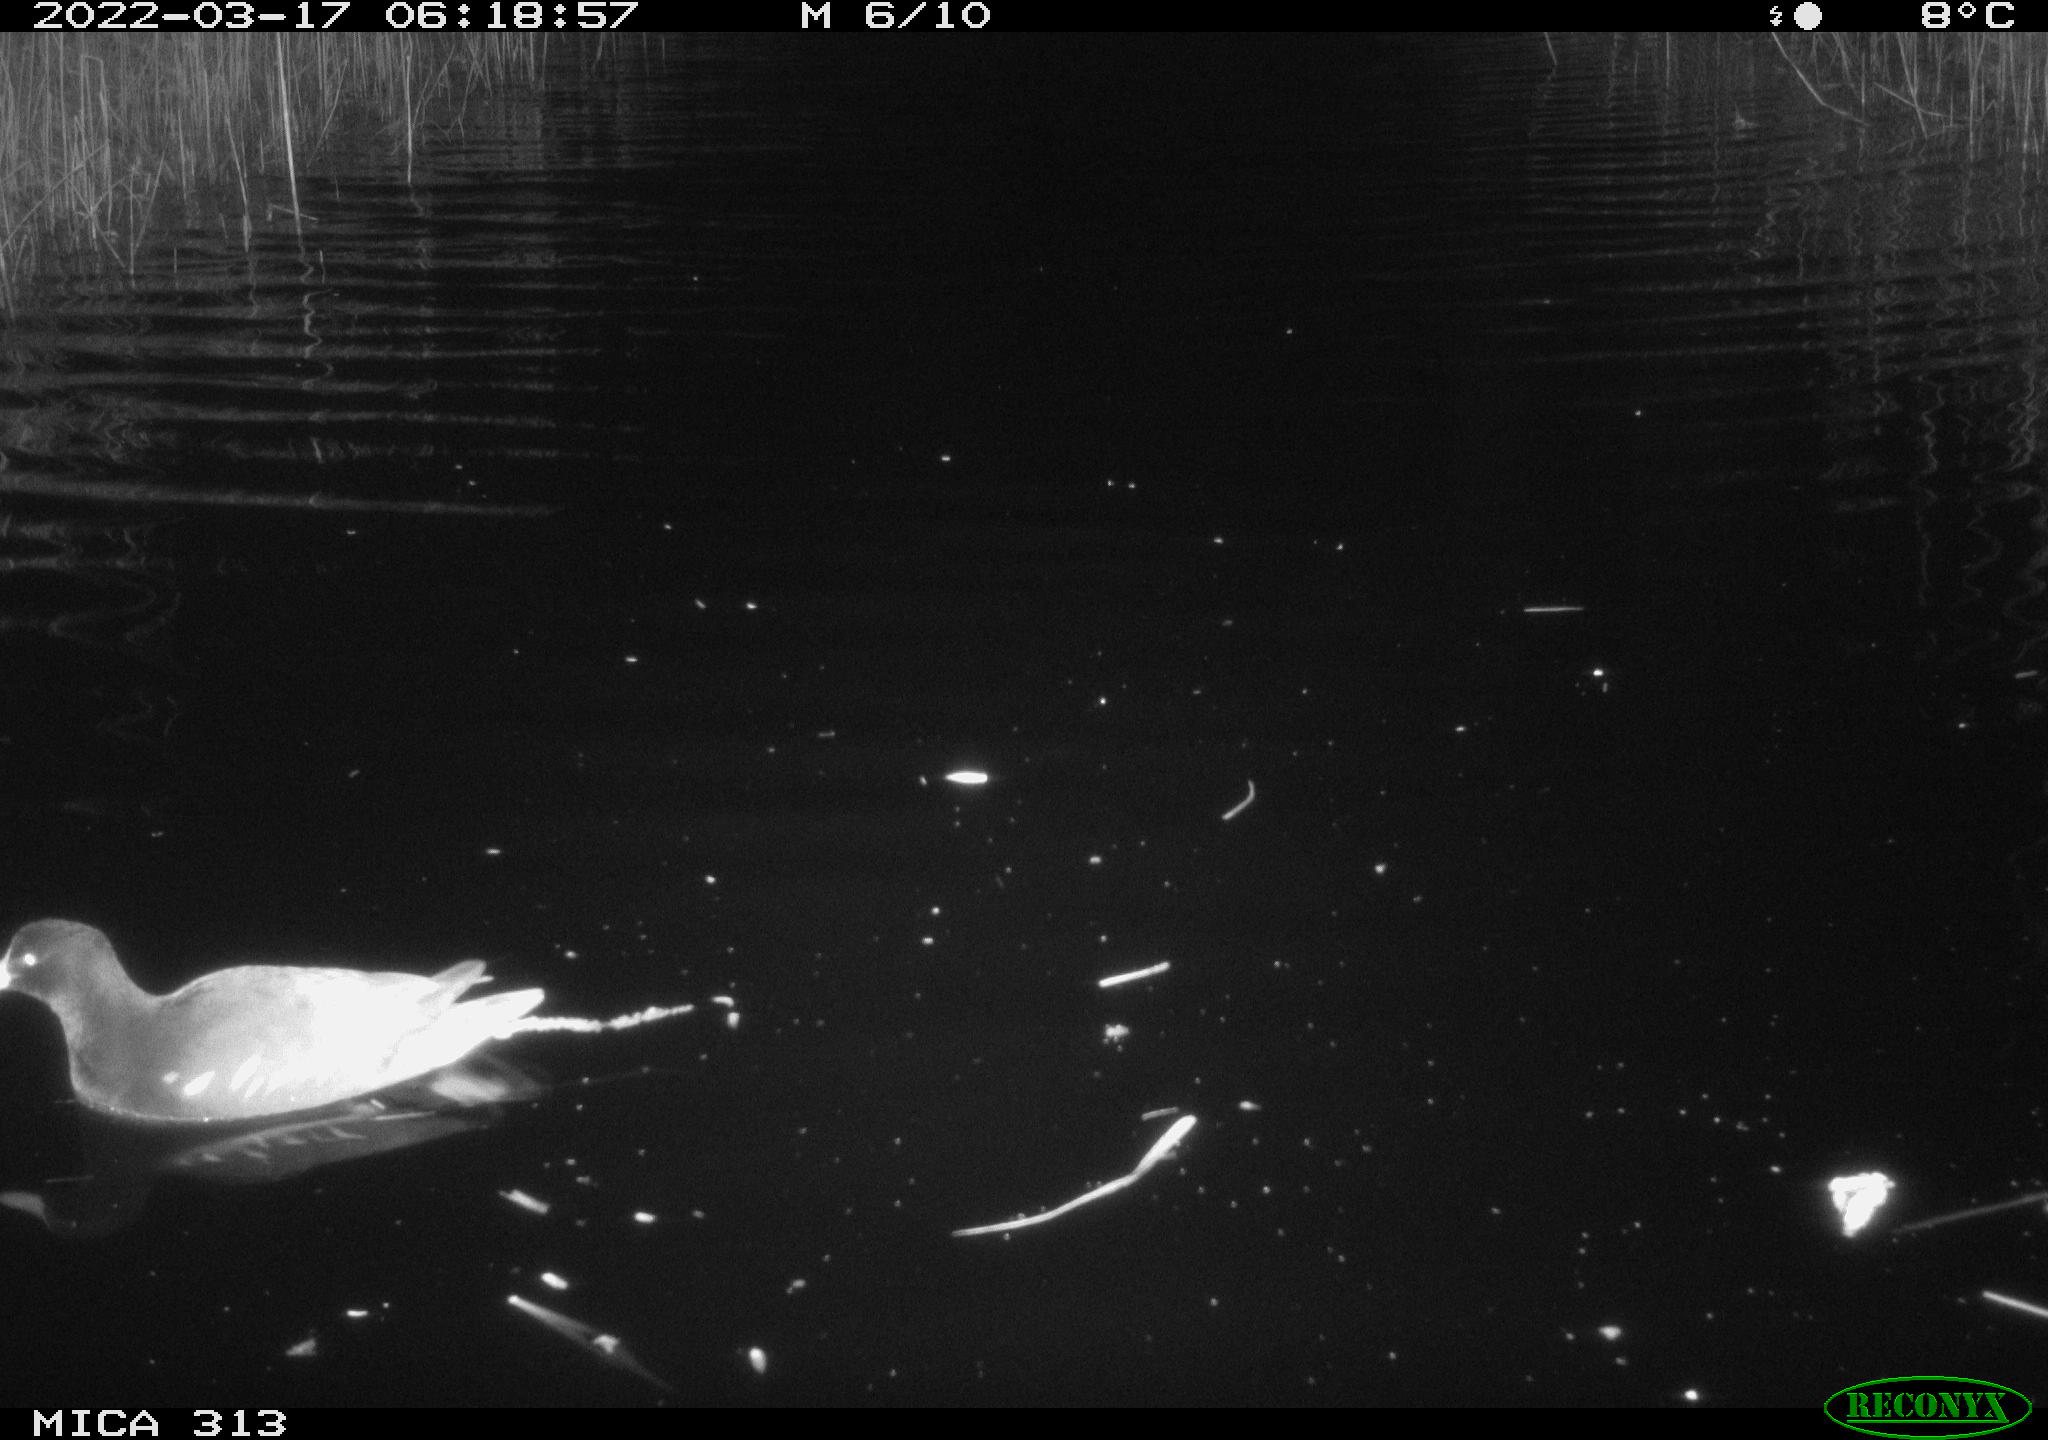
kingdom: Animalia
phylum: Chordata
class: Aves
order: Gruiformes
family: Rallidae
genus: Gallinula
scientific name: Gallinula chloropus
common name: Common moorhen
